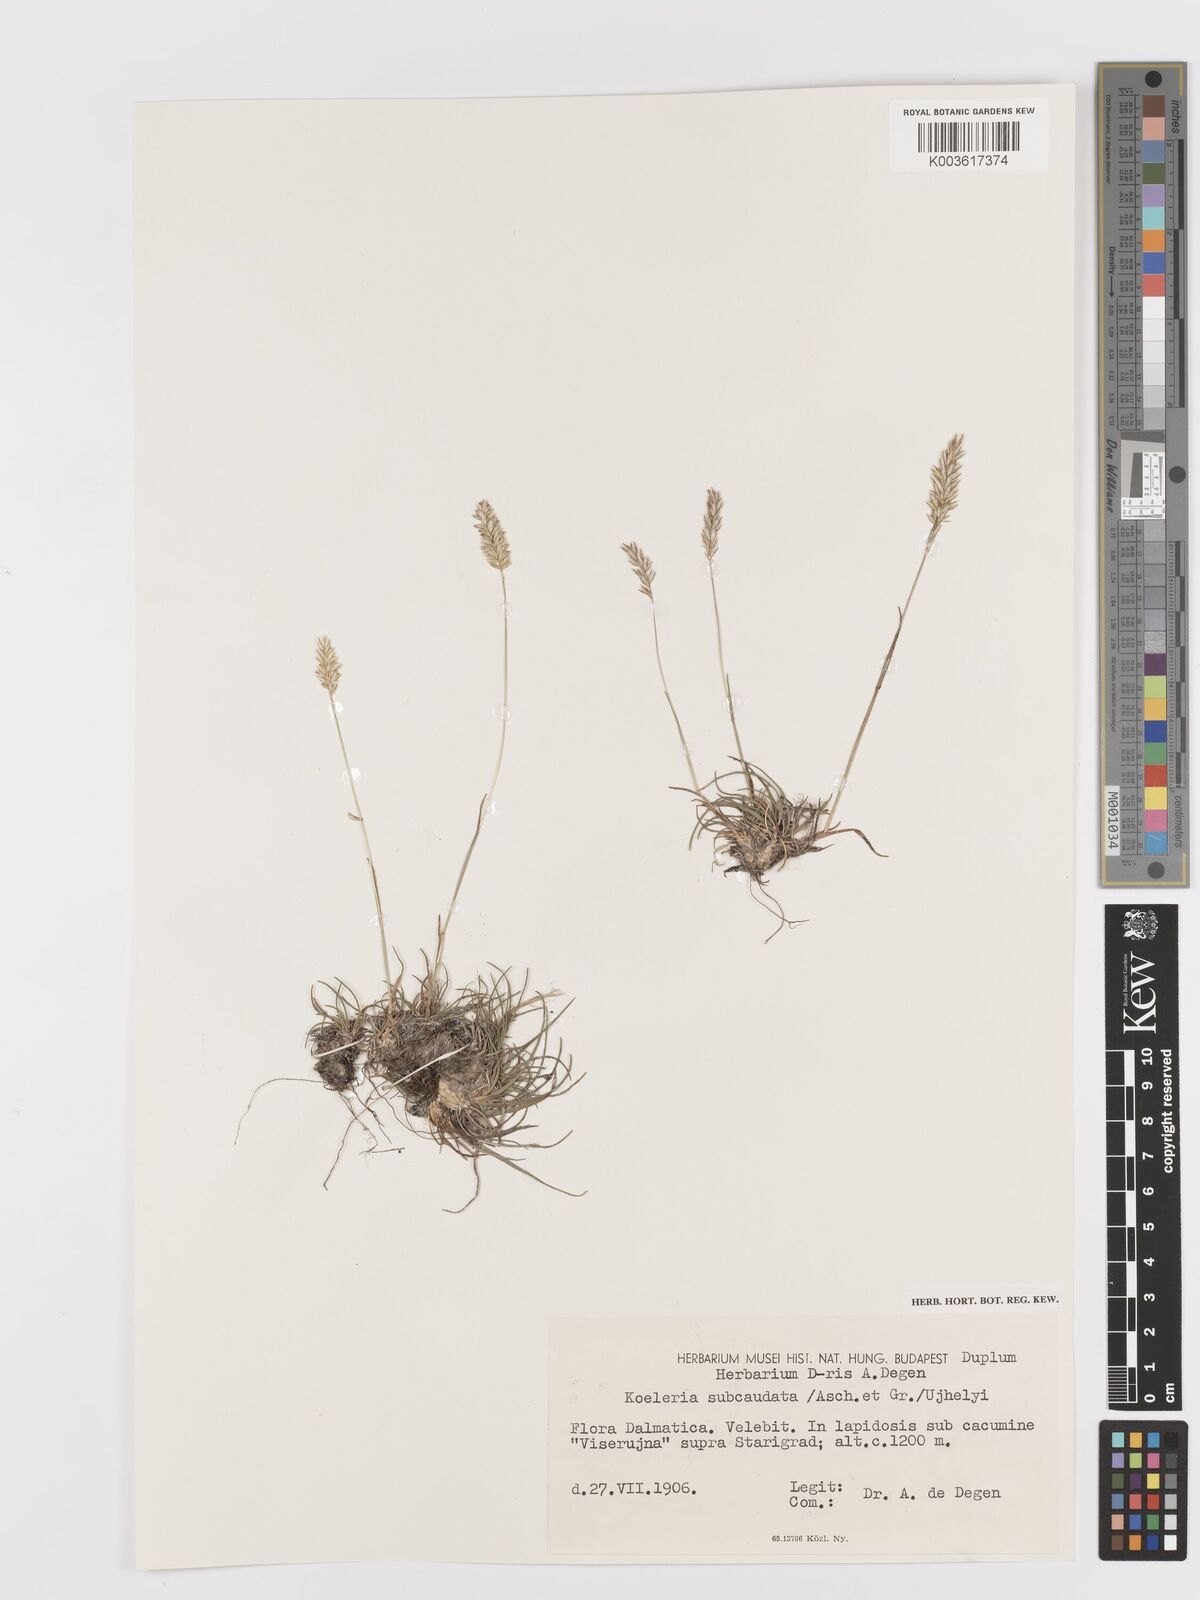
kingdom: Plantae
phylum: Tracheophyta
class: Liliopsida
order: Poales
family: Poaceae
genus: Koeleria
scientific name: Koeleria splendens
